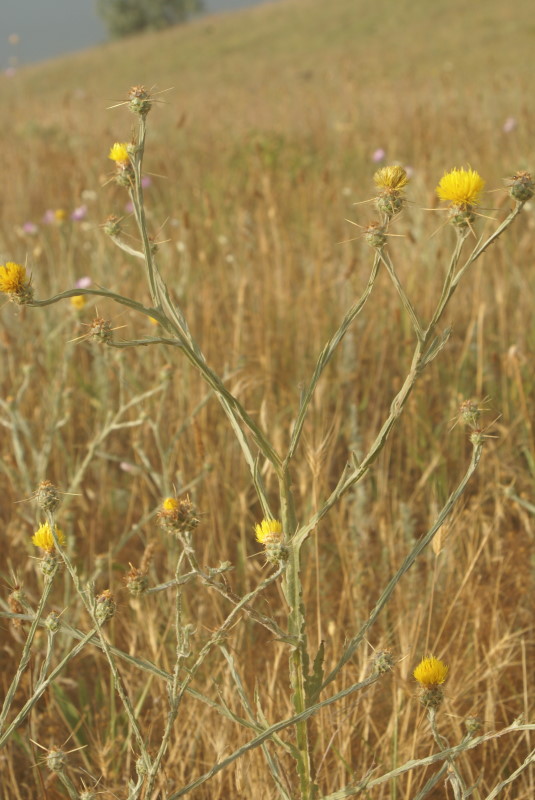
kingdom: Plantae
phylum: Tracheophyta
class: Magnoliopsida
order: Asterales
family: Asteraceae
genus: Centaurea
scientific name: Centaurea solstitialis
